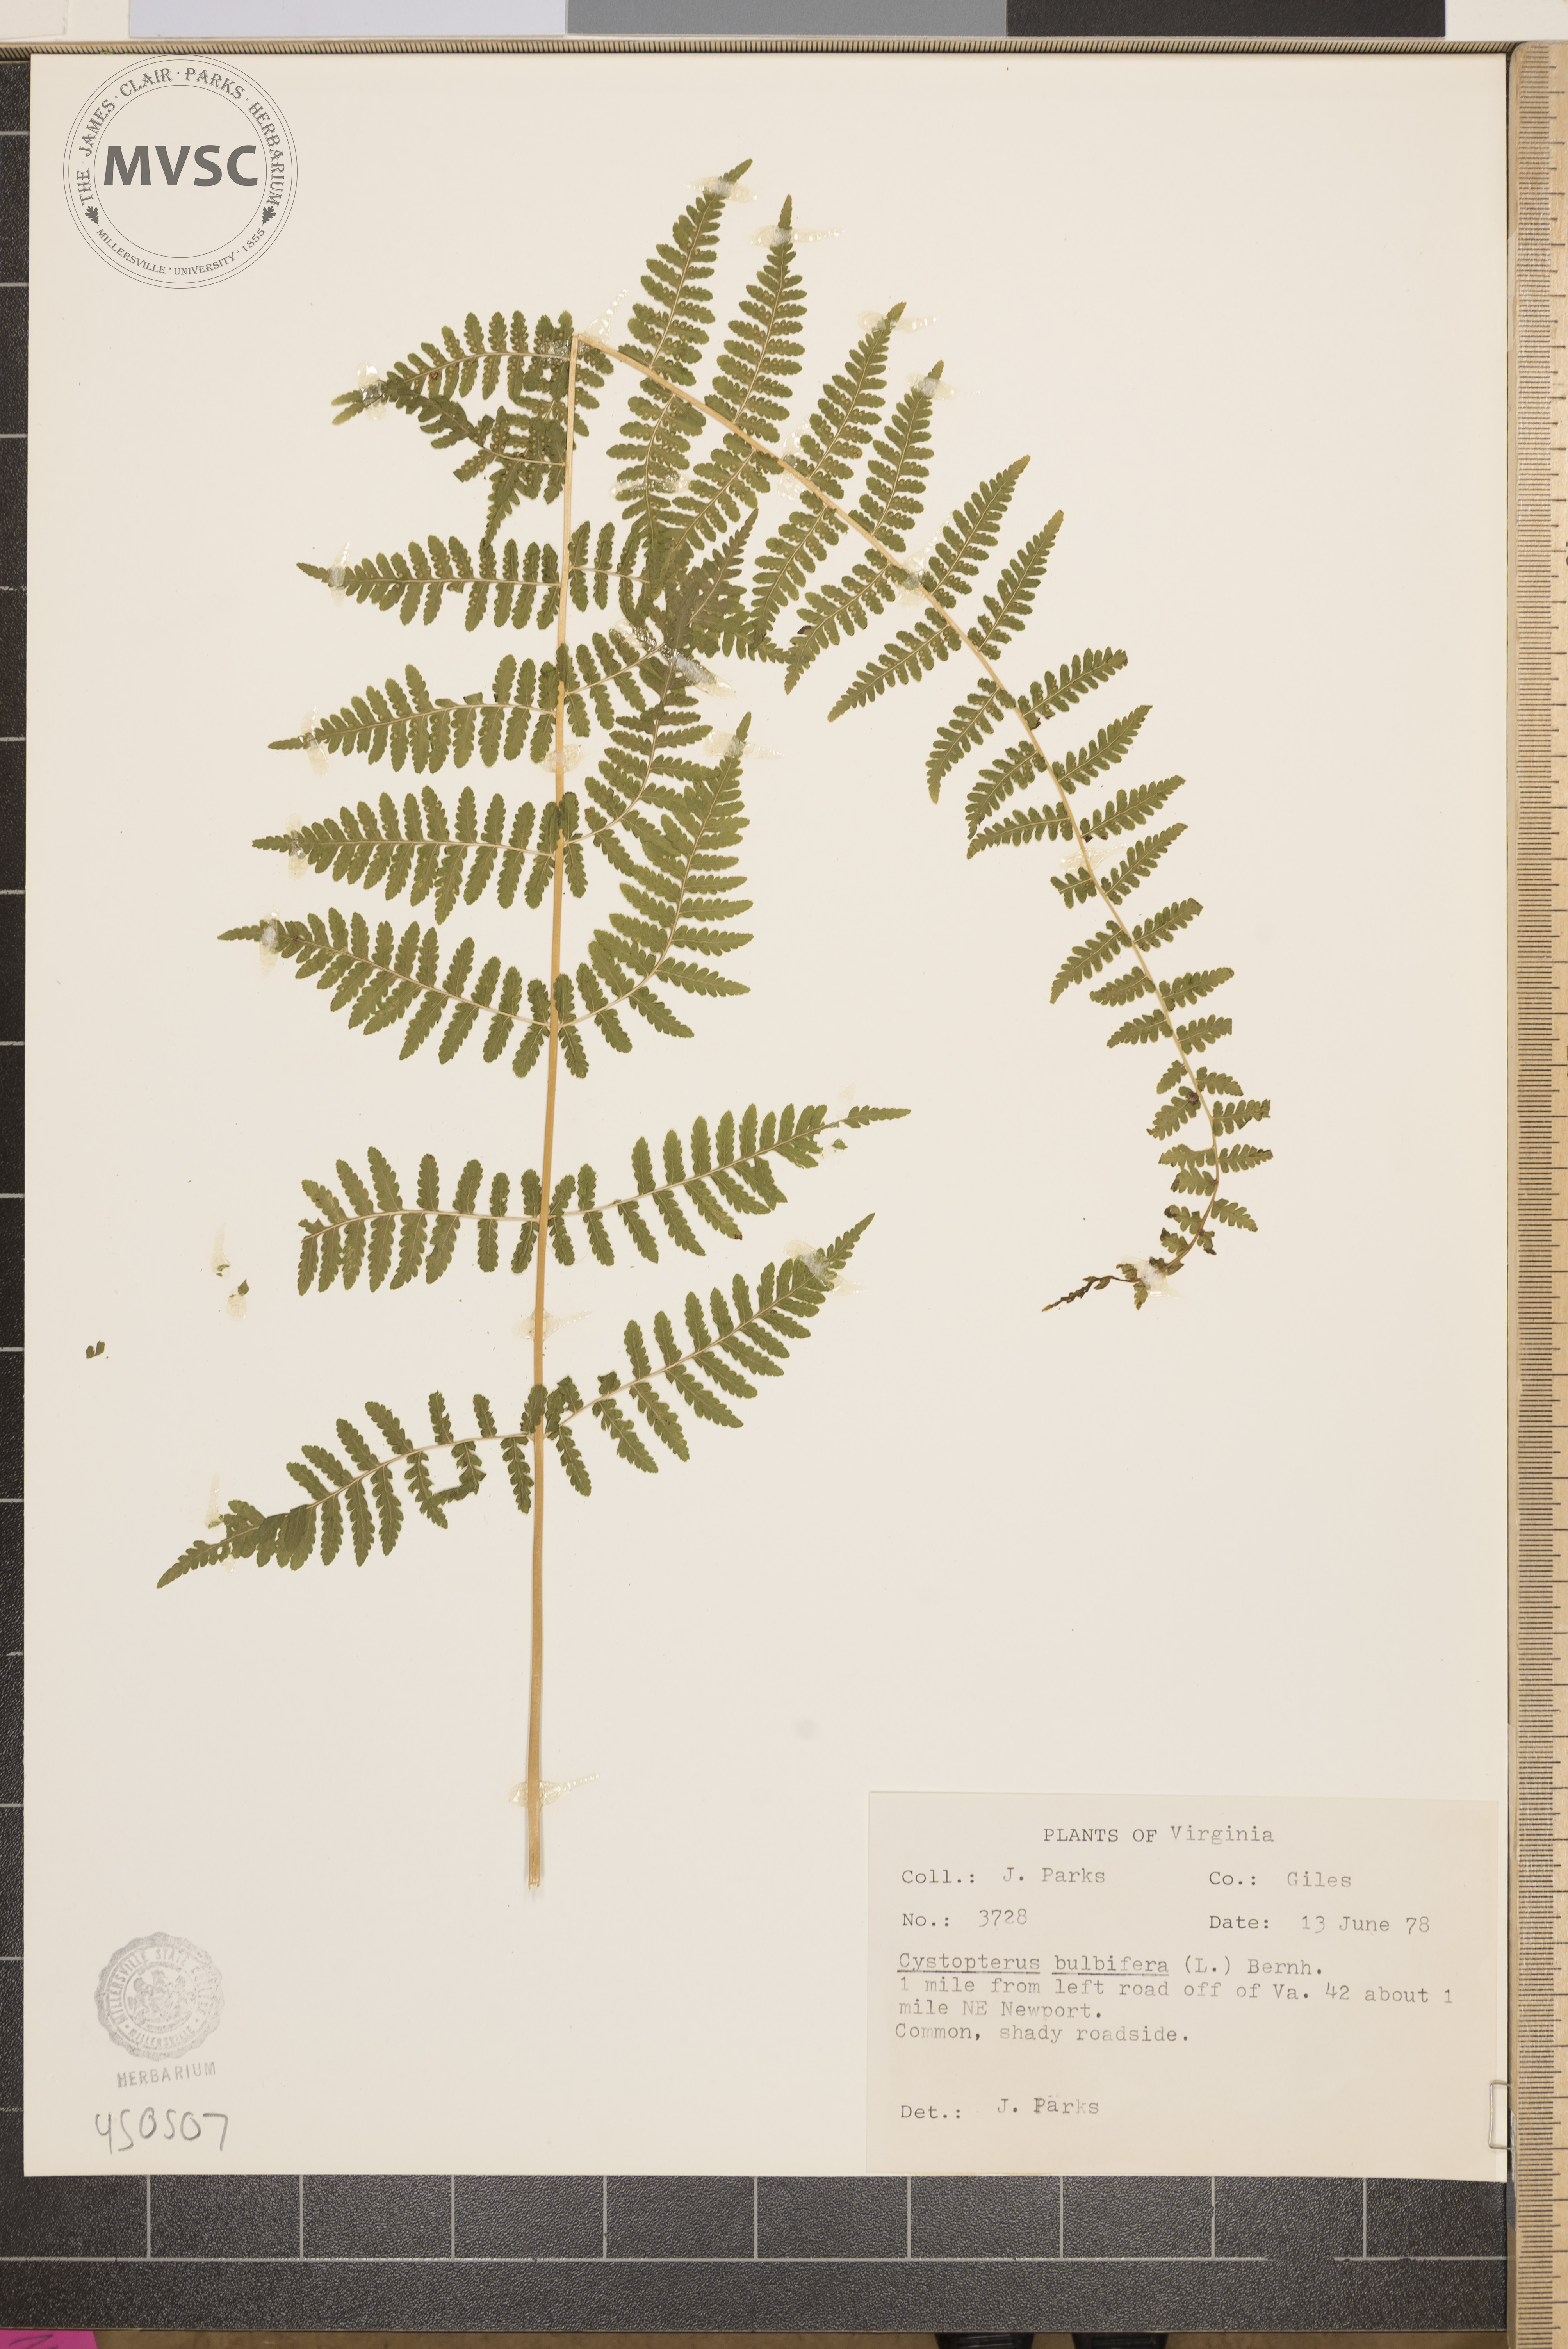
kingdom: Plantae
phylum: Tracheophyta
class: Polypodiopsida
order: Polypodiales
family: Cystopteridaceae
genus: Cystopteris
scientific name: Cystopteris bulbifera
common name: Bulblet bladder fern
